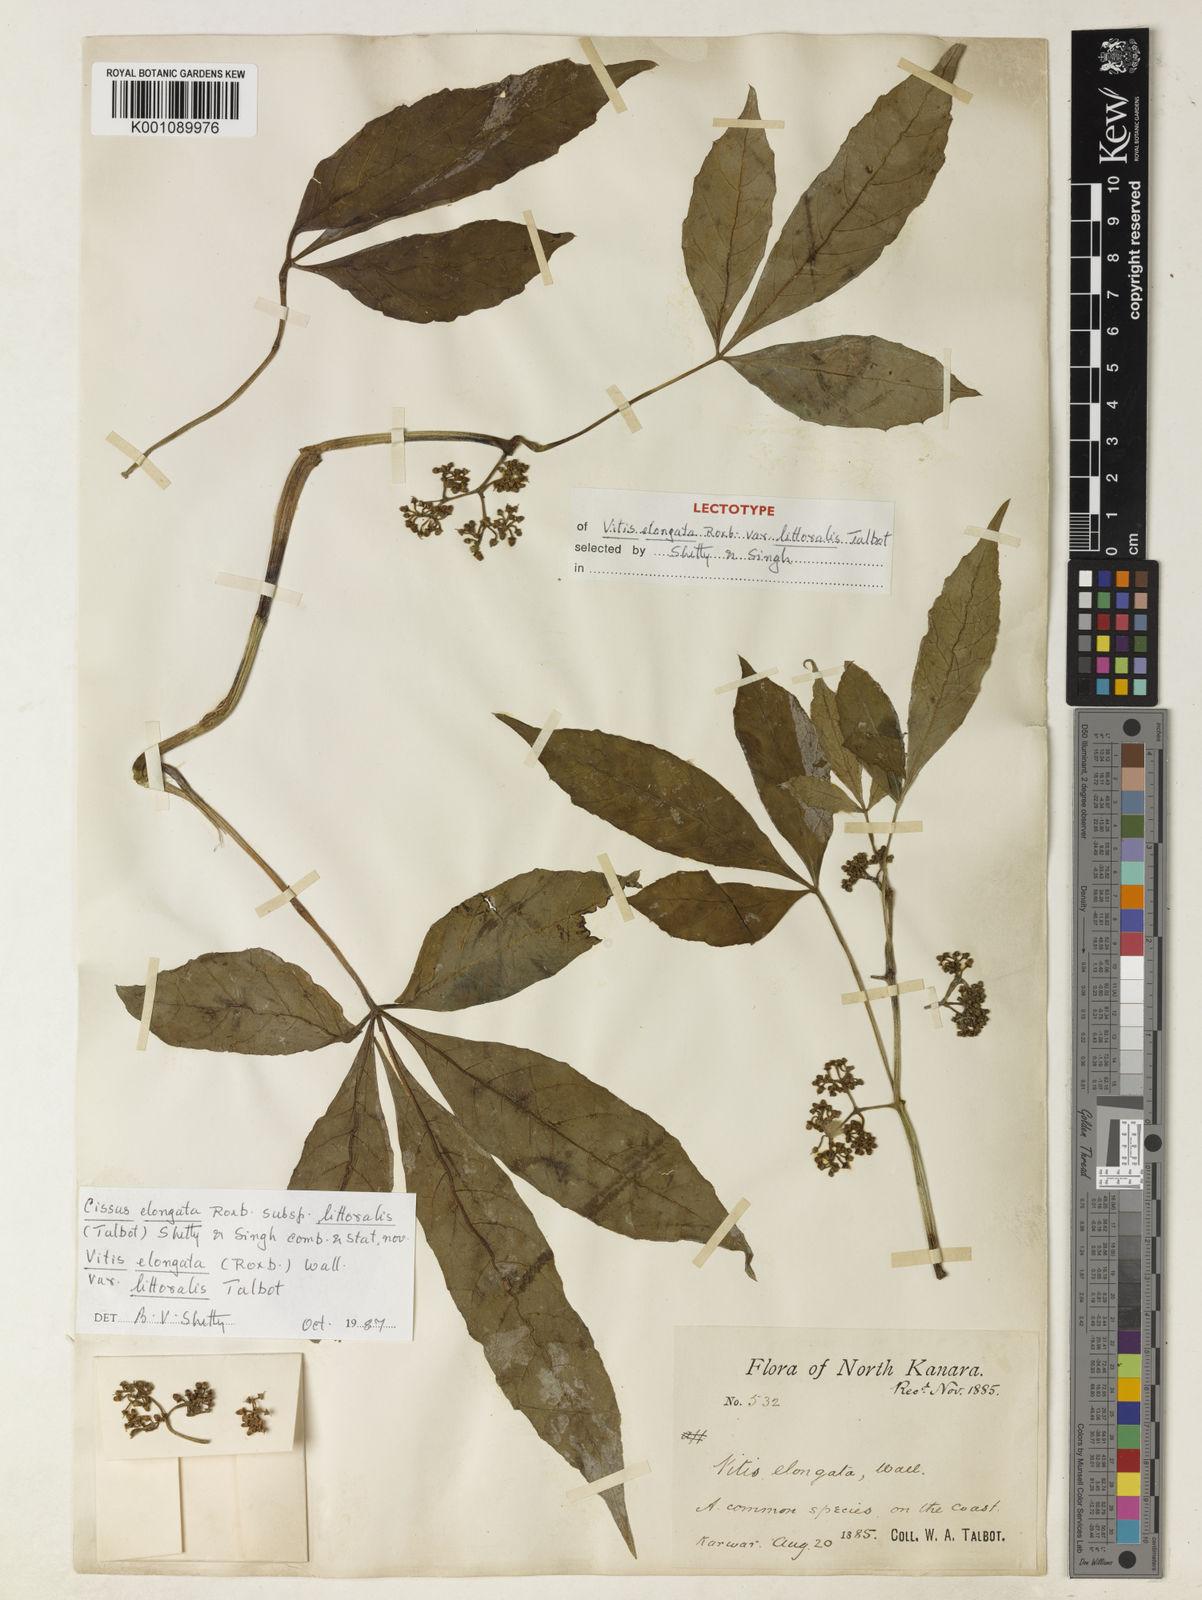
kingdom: Plantae
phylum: Tracheophyta
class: Magnoliopsida
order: Vitales
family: Vitaceae
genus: Cissus
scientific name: Cissus elongata
